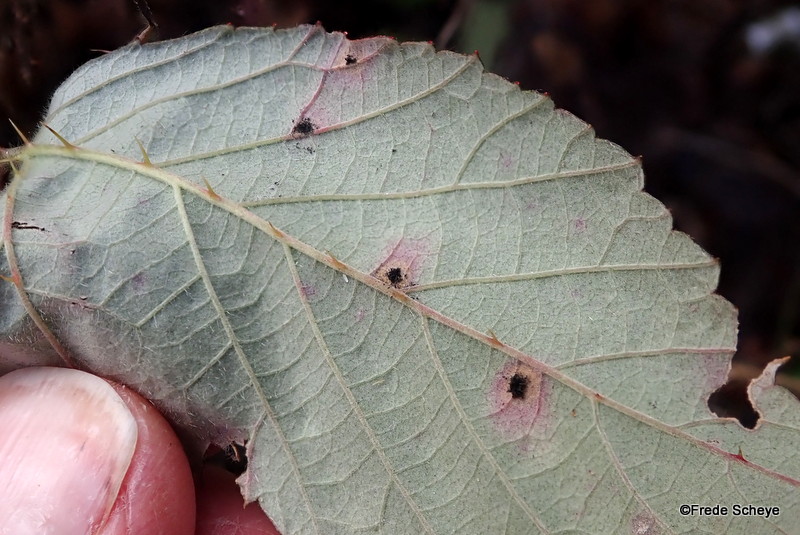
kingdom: Fungi
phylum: Basidiomycota
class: Pucciniomycetes
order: Pucciniales
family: Phragmidiaceae
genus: Phragmidium
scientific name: Phragmidium violaceum
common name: violet flercellerust
